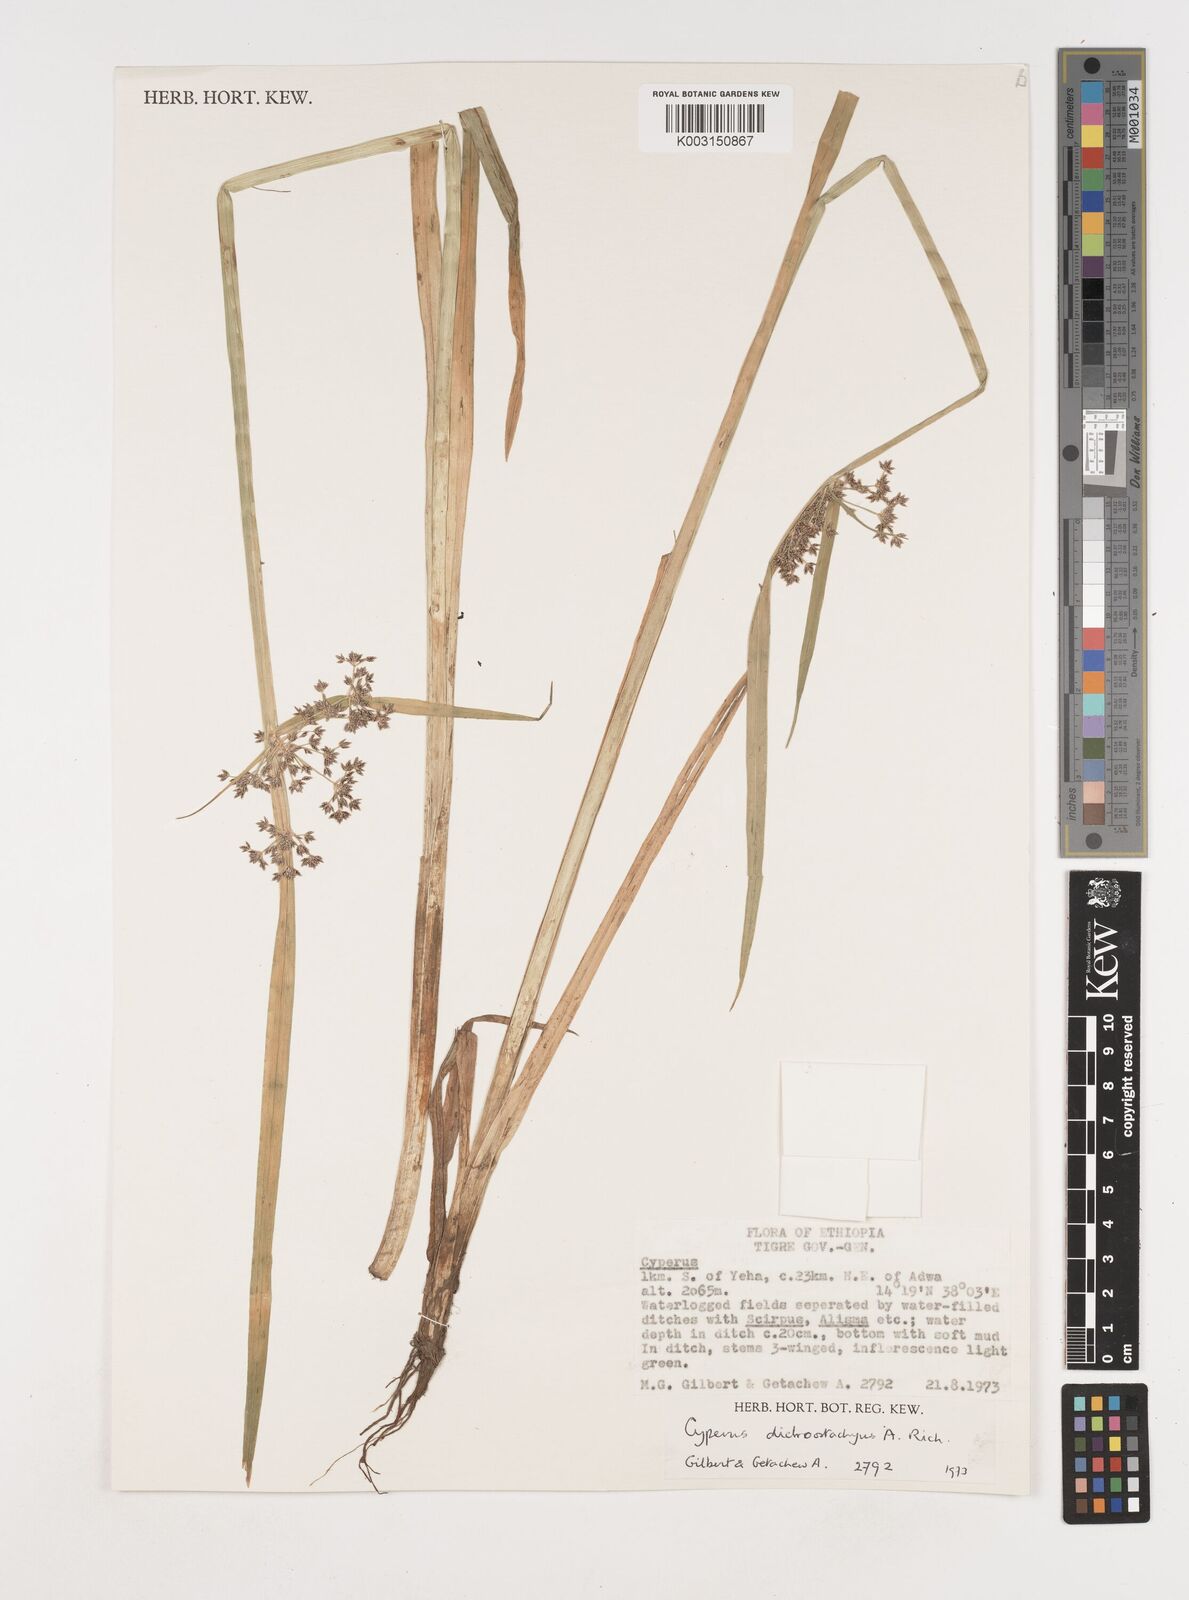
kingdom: Plantae
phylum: Tracheophyta
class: Liliopsida
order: Poales
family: Cyperaceae
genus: Cyperus
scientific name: Cyperus dichrostachyus
